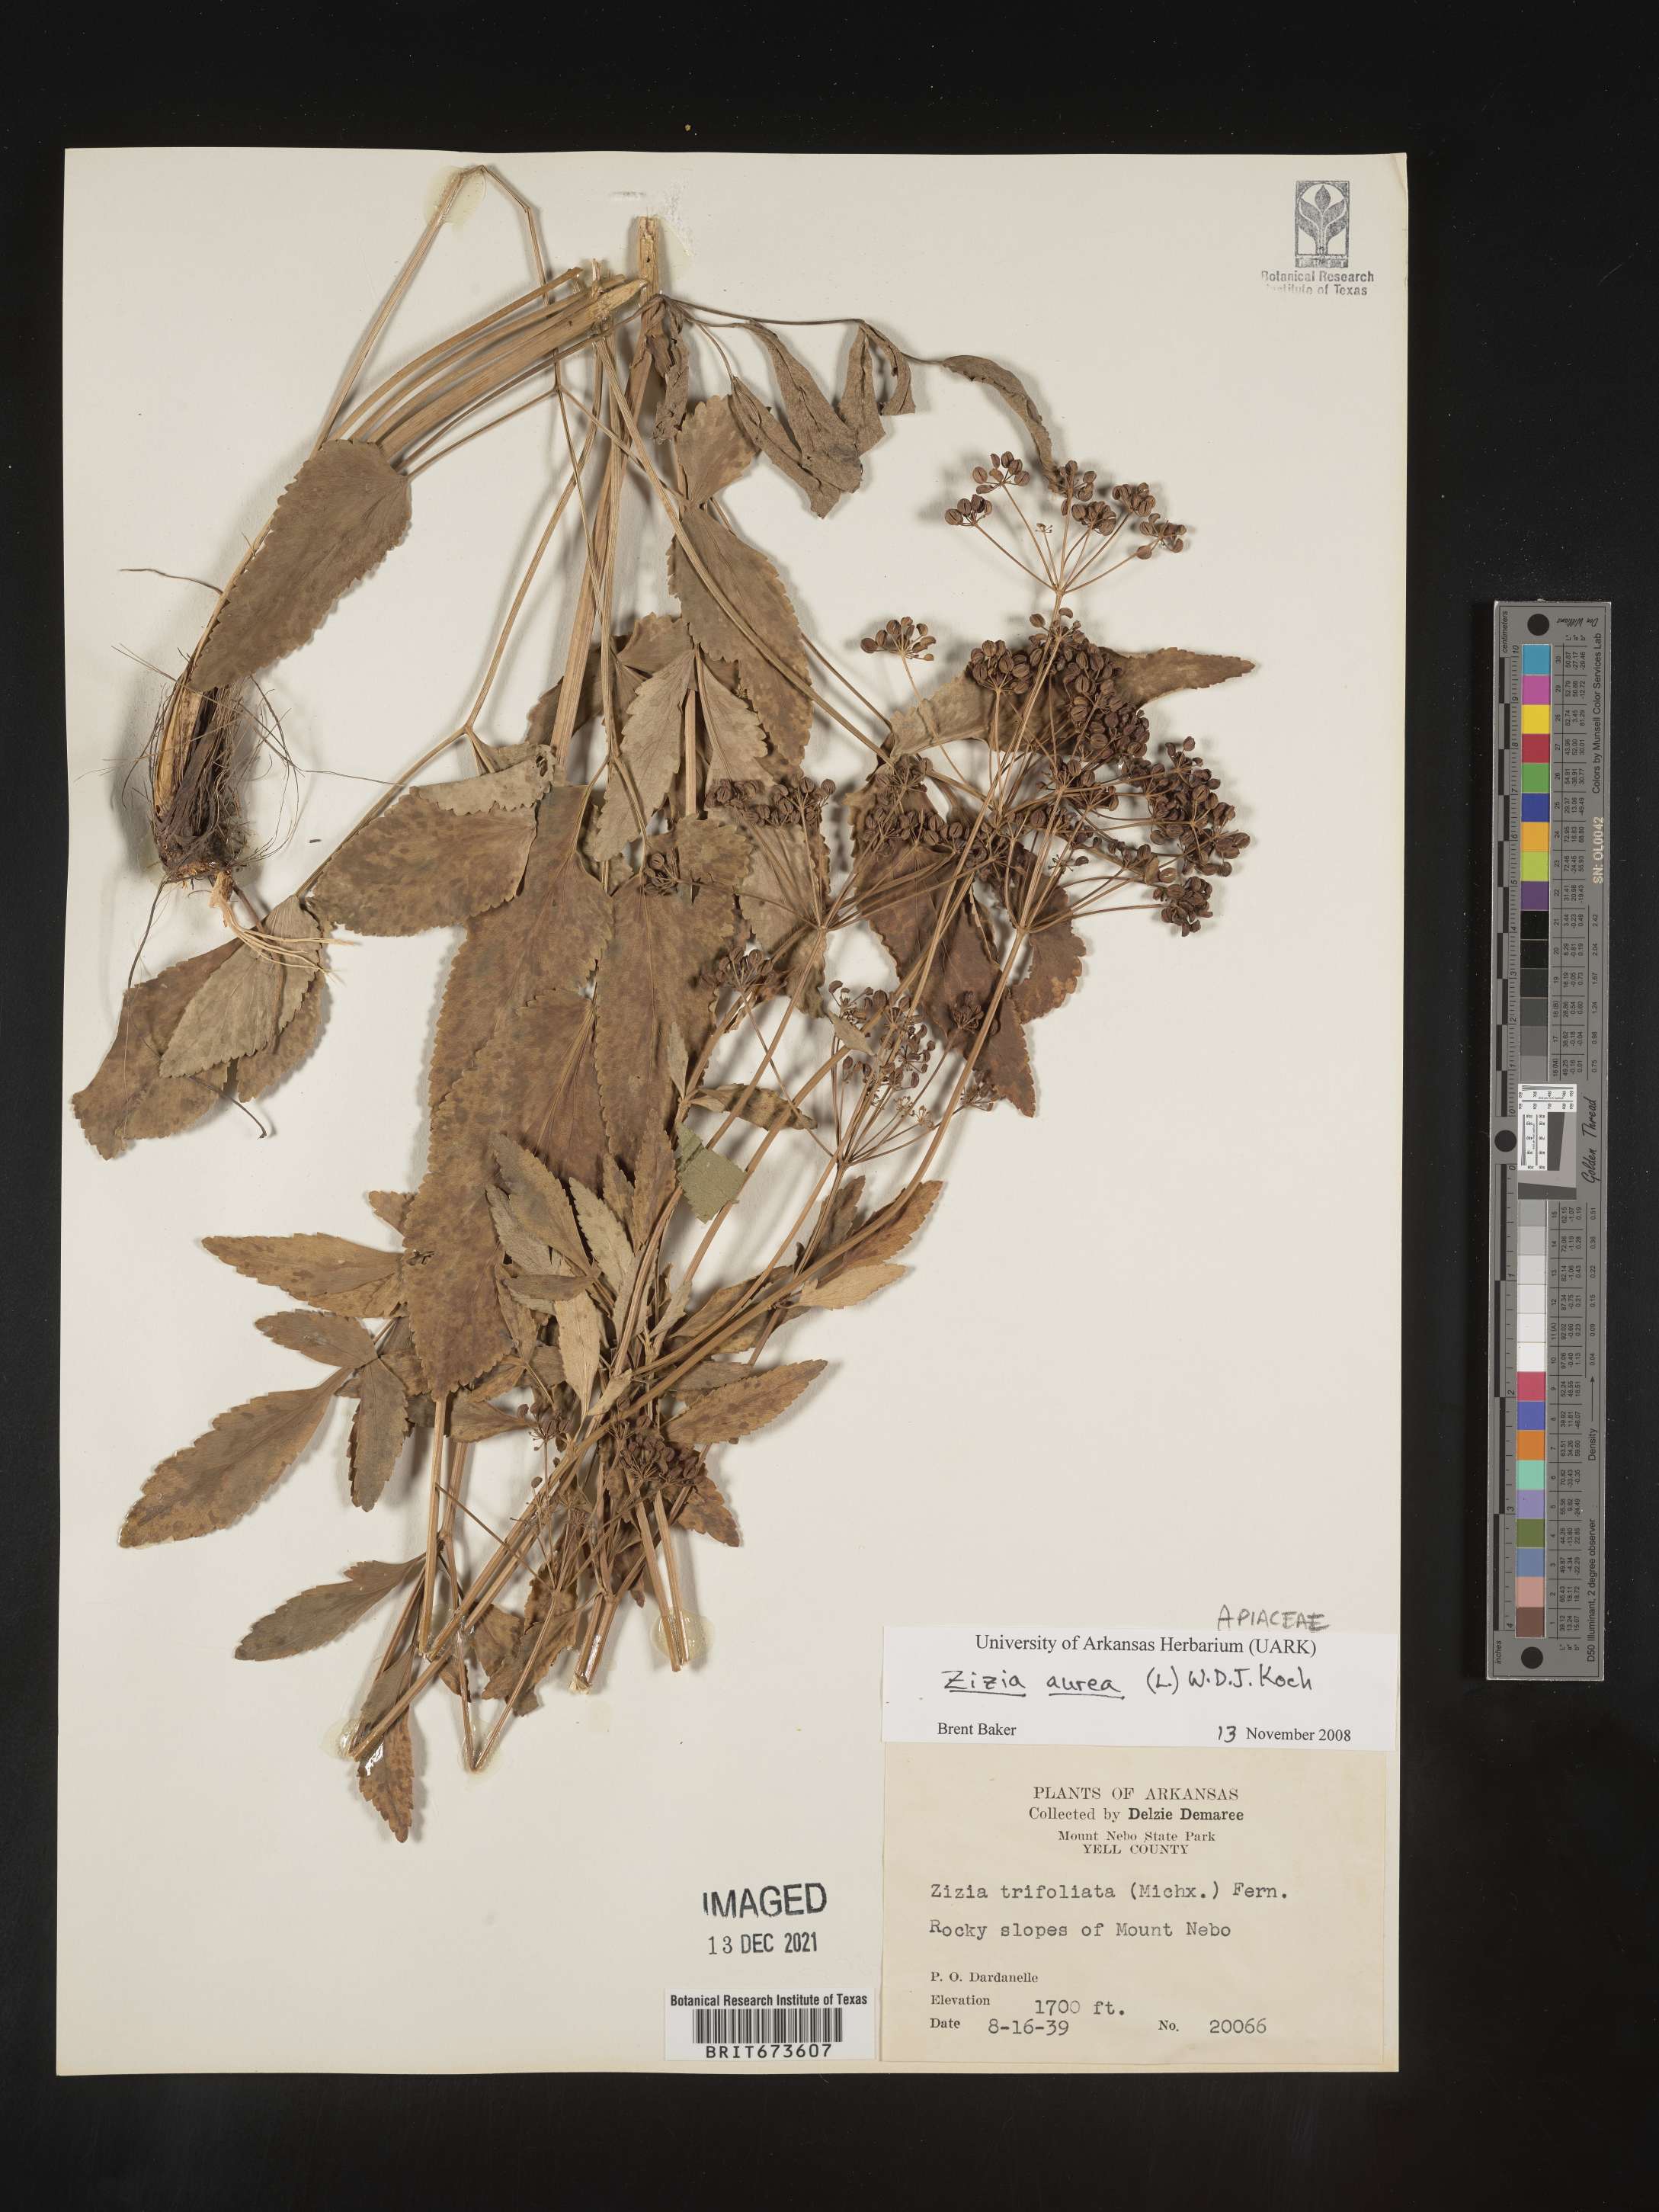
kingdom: Plantae
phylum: Tracheophyta
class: Magnoliopsida
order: Apiales
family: Apiaceae
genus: Zizia
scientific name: Zizia aurea
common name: Golden alexanders
